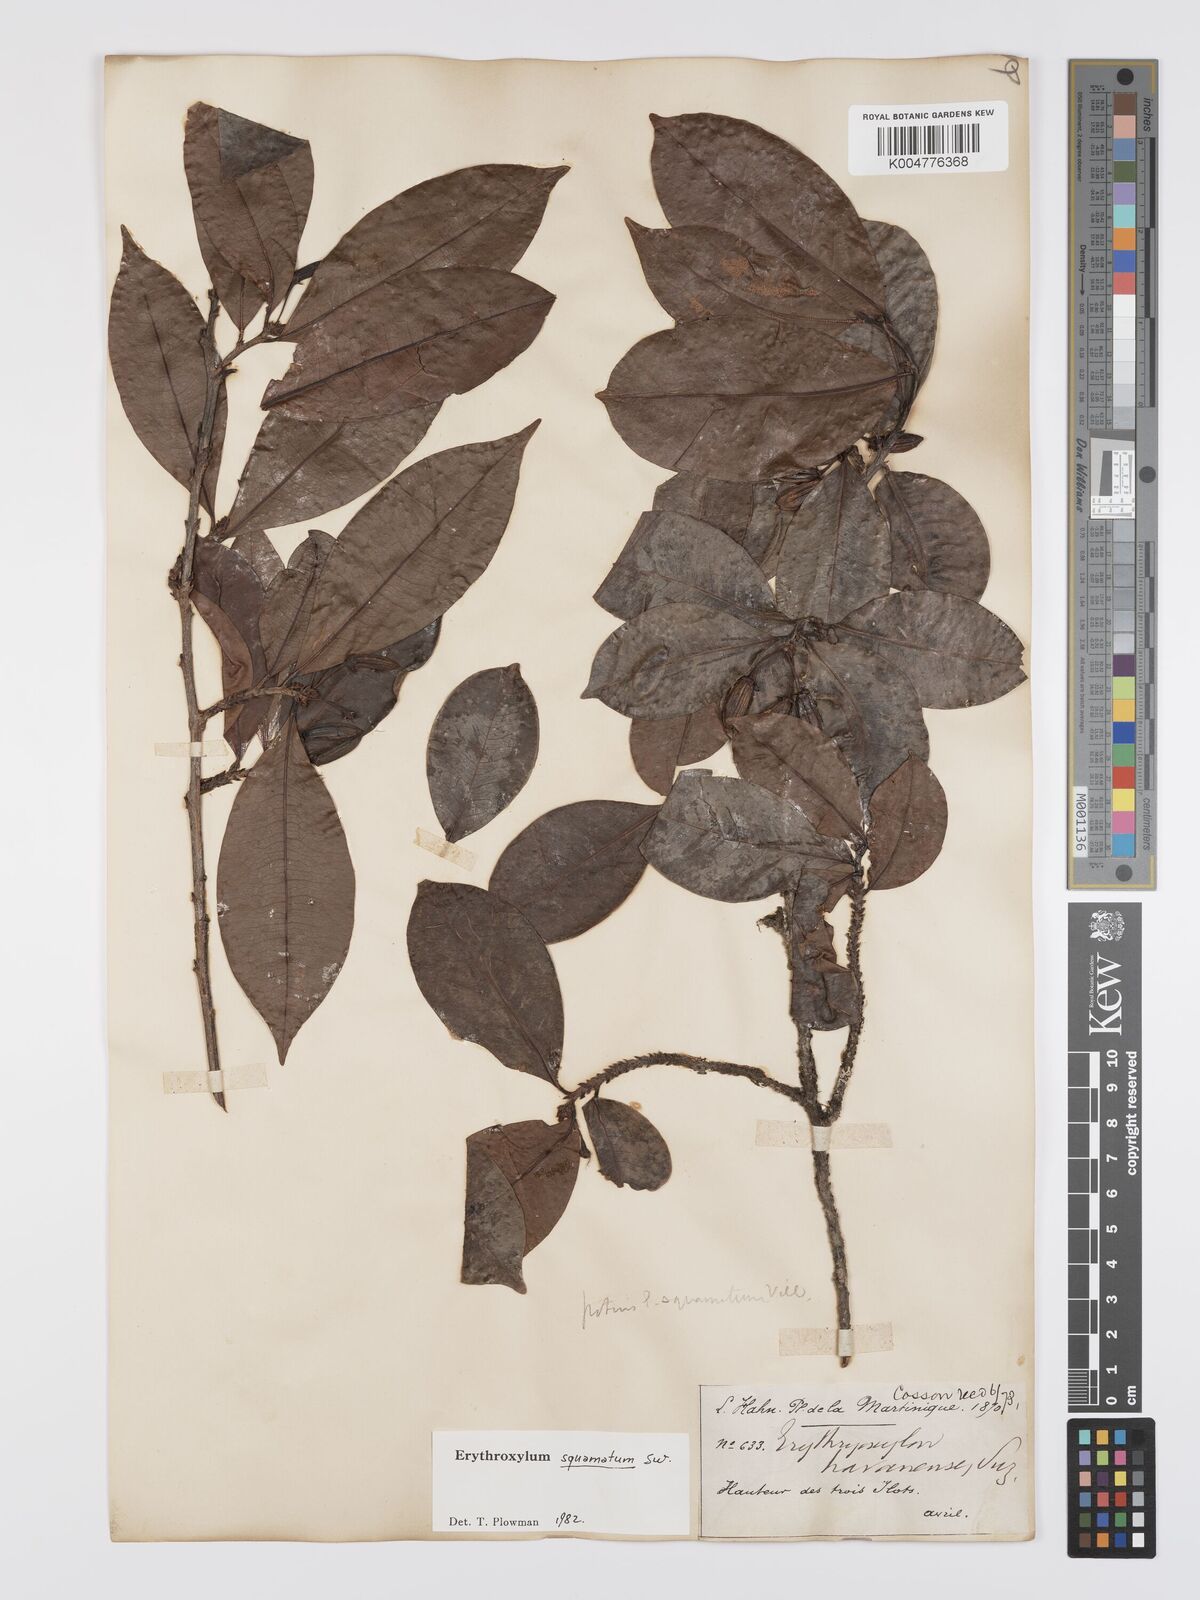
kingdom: Plantae
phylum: Tracheophyta
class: Magnoliopsida
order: Malpighiales
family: Erythroxylaceae
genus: Erythroxylum
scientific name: Erythroxylum squamatum
